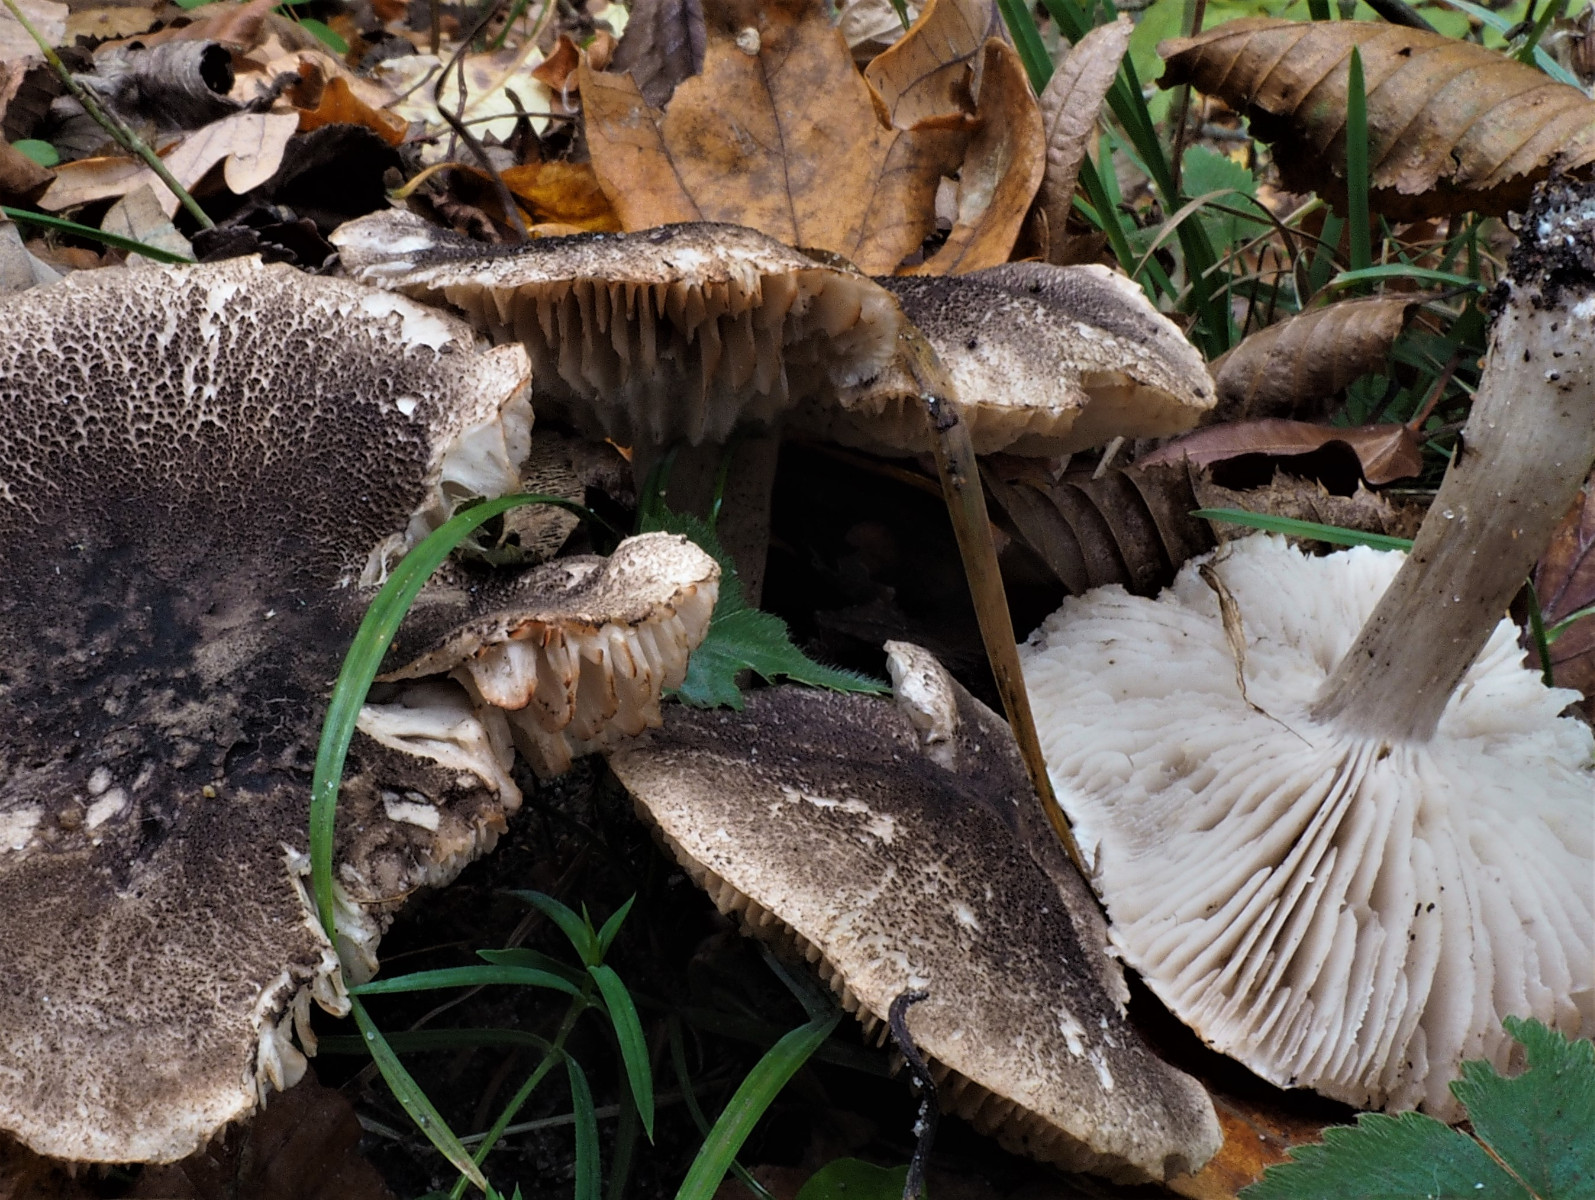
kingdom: Fungi
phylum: Basidiomycota
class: Agaricomycetes
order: Agaricales
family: Tricholomataceae
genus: Tricholoma
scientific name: Tricholoma orirubens
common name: rødbladet ridderhat
